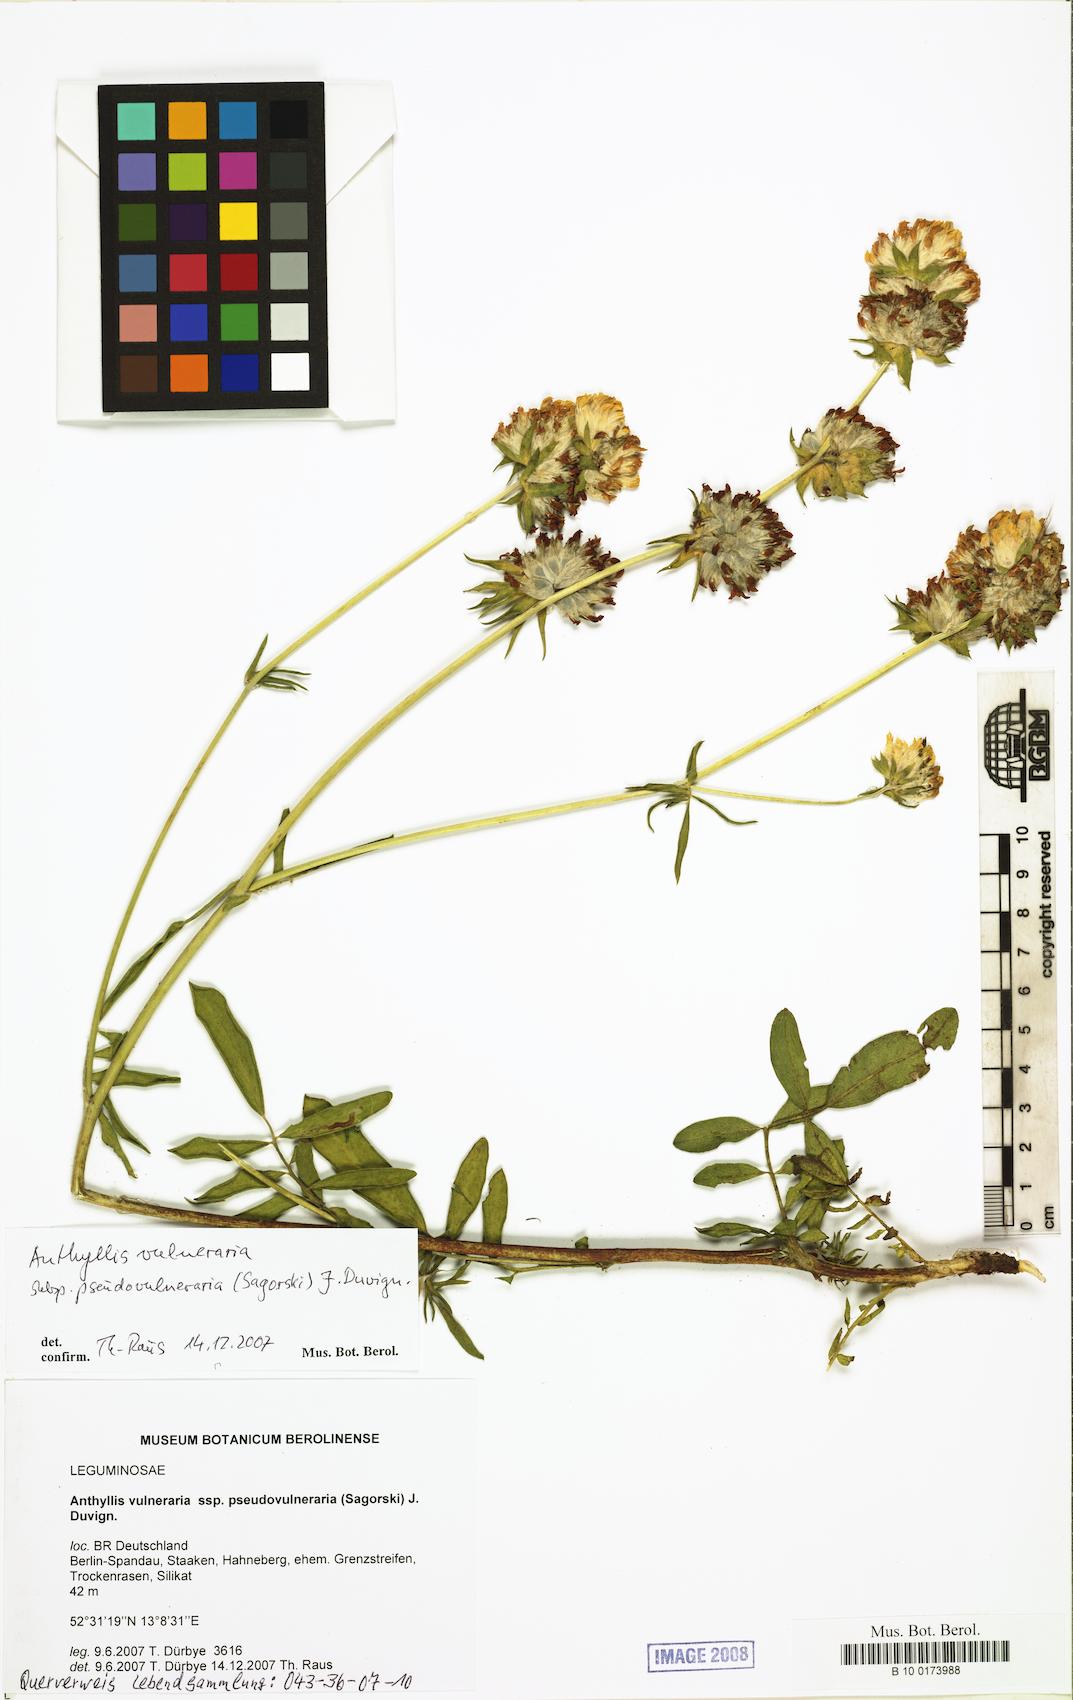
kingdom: Plantae
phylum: Tracheophyta
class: Magnoliopsida
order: Fabales
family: Fabaceae
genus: Anthyllis
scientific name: Anthyllis vulneraria
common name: Kidney vetch
